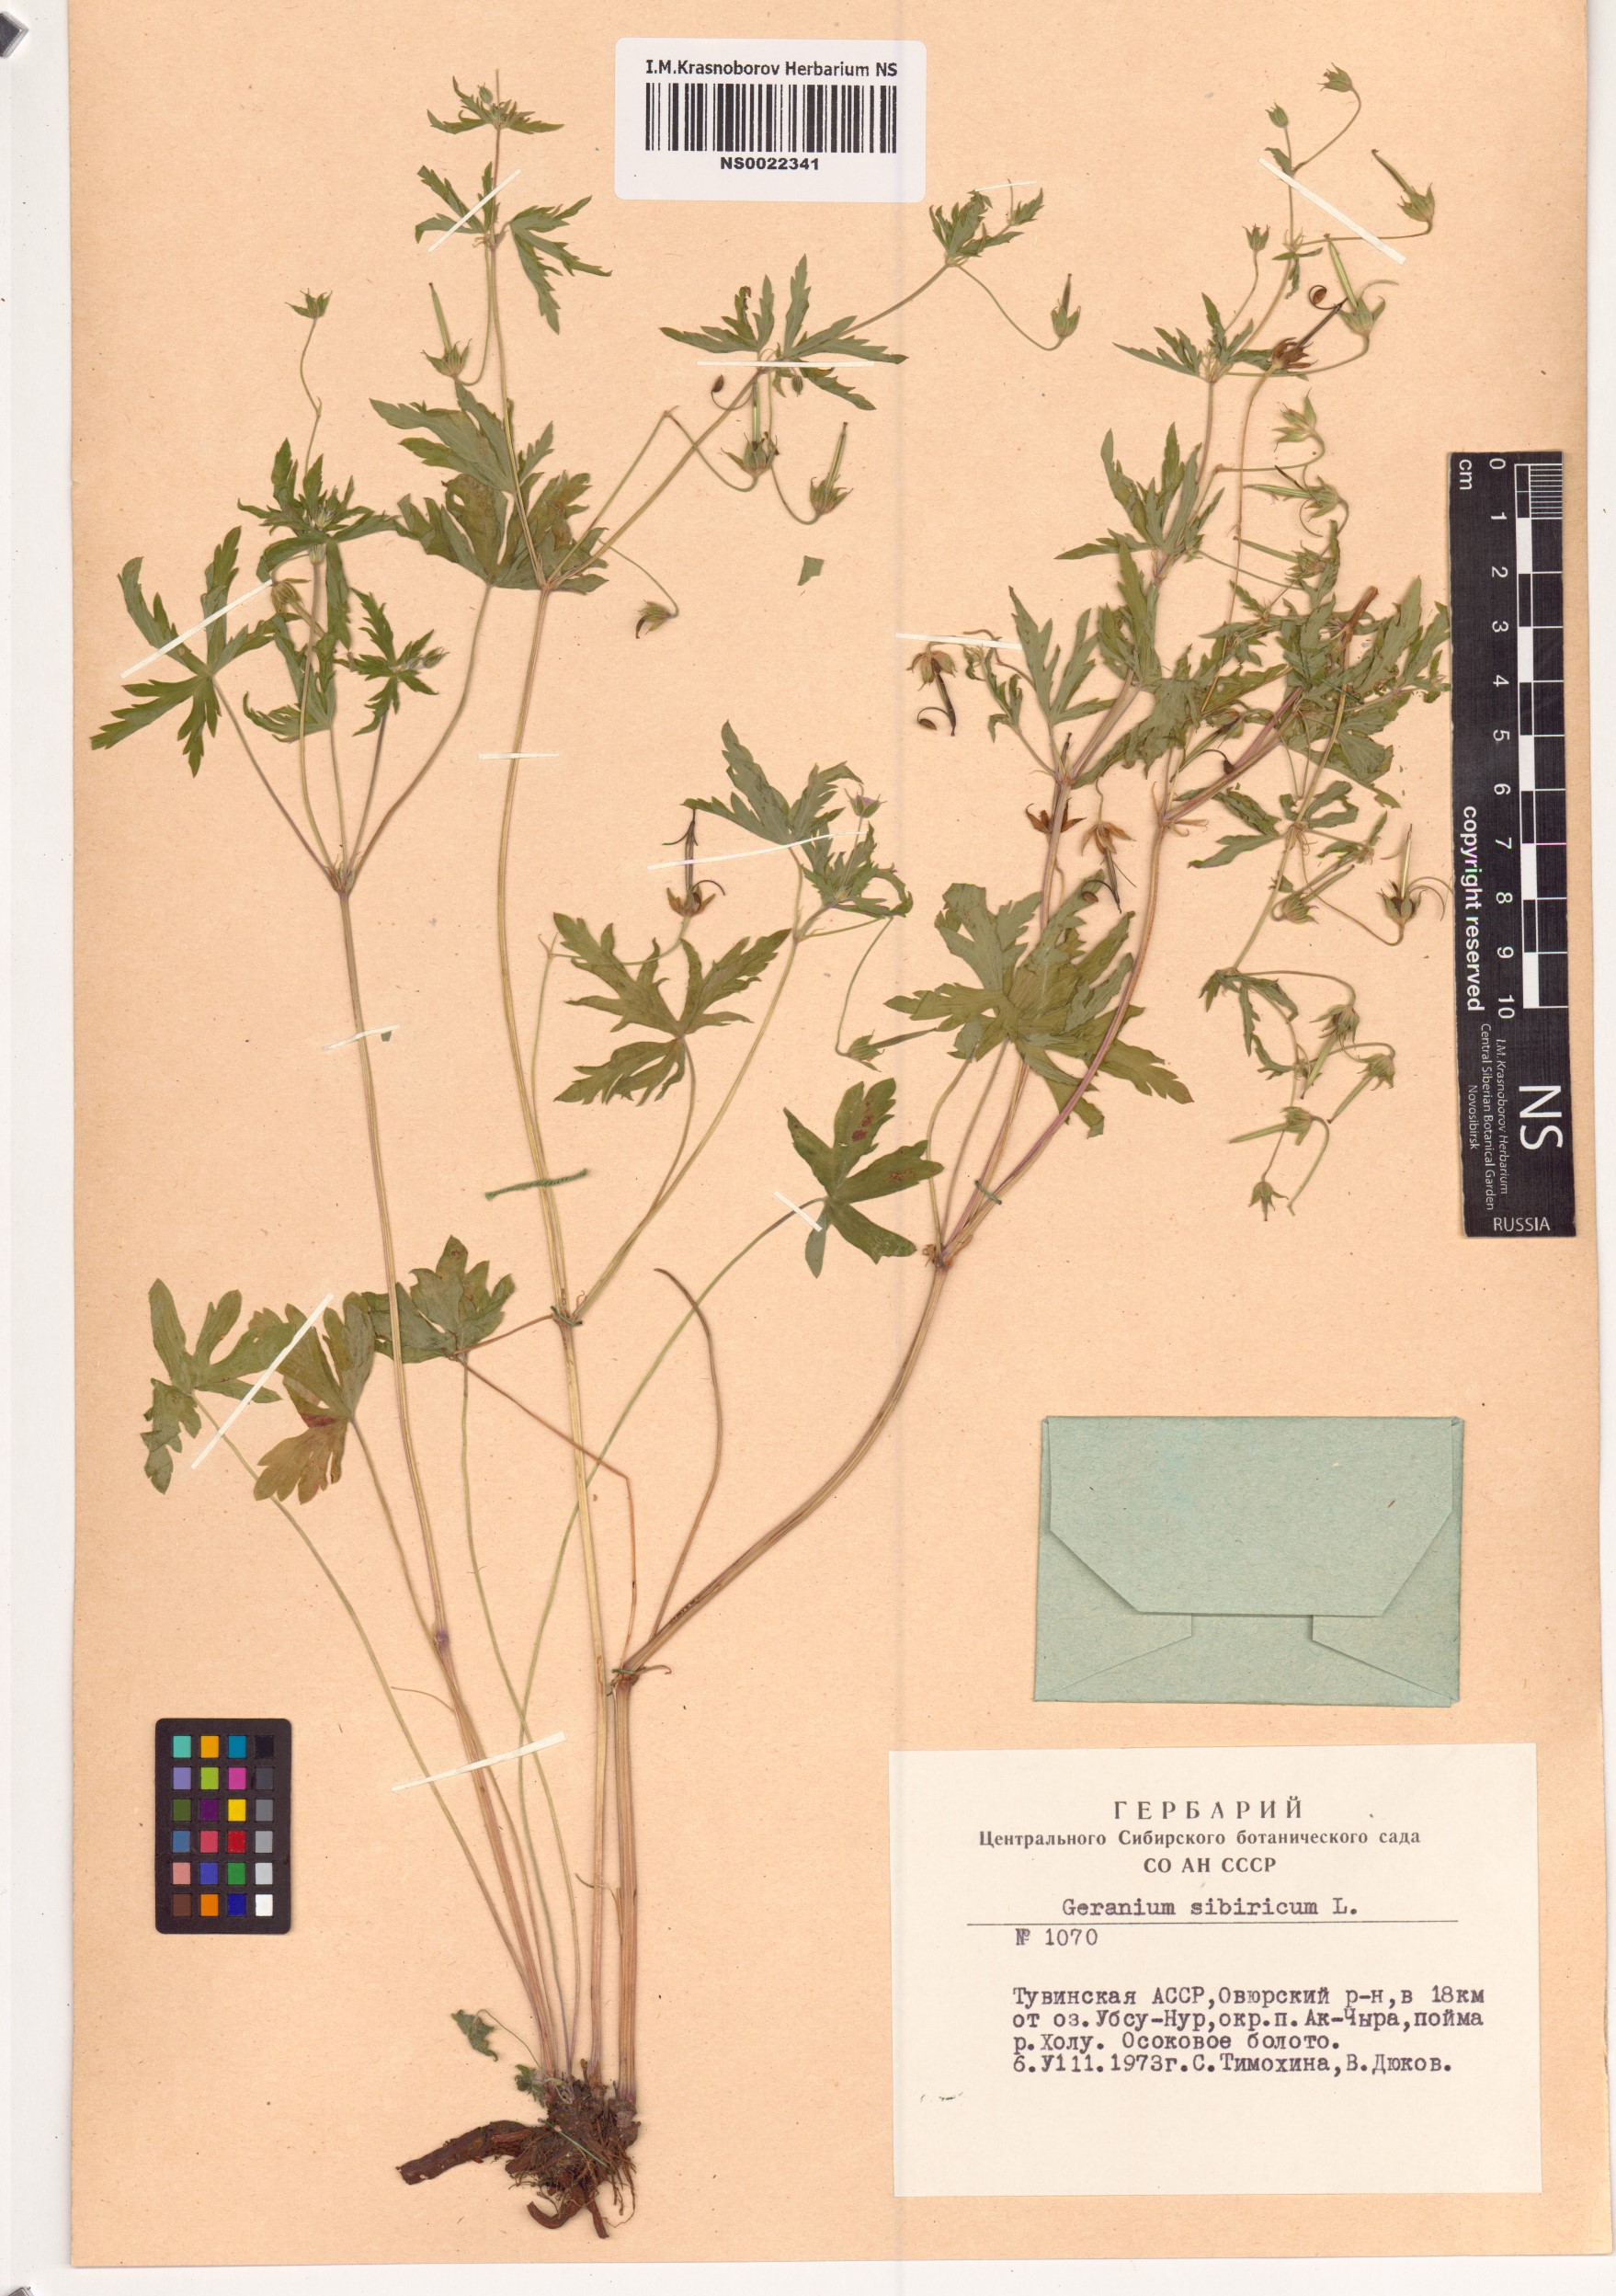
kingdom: Plantae
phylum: Tracheophyta
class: Magnoliopsida
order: Geraniales
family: Geraniaceae
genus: Geranium
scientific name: Geranium sibiricum
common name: Siberian crane's-bill
